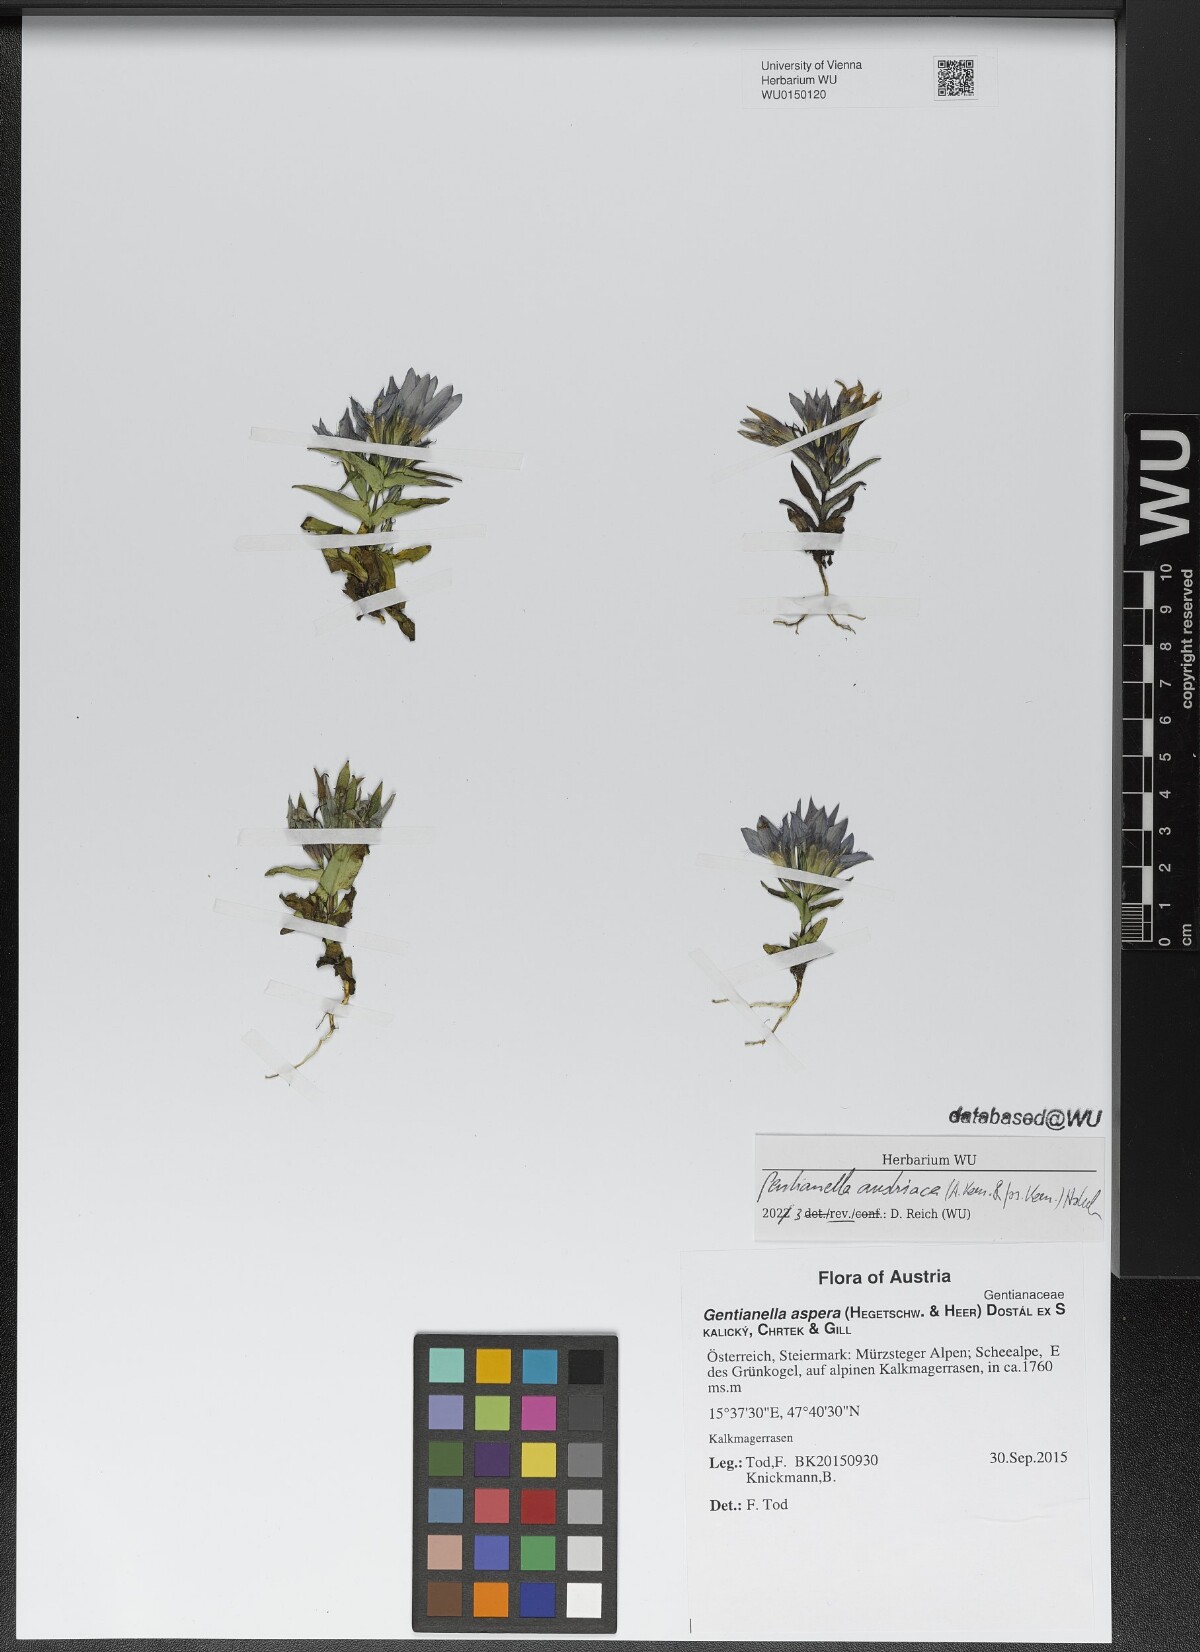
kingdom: Plantae
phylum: Tracheophyta
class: Magnoliopsida
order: Gentianales
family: Gentianaceae
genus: Gentianella
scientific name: Gentianella austriaca
